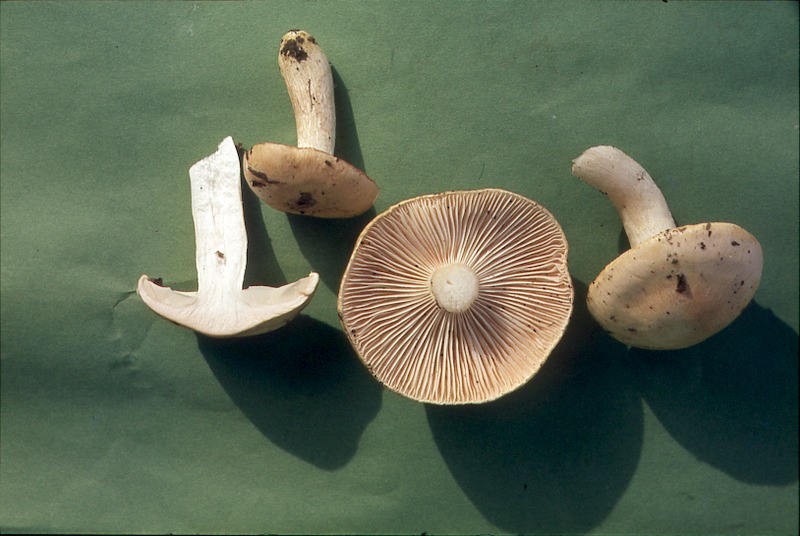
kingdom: Fungi
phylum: Basidiomycota
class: Agaricomycetes
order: Agaricales
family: Hygrophoraceae
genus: Hygrophorus
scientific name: Hygrophorus pudorinus
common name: Rosy woodwax
